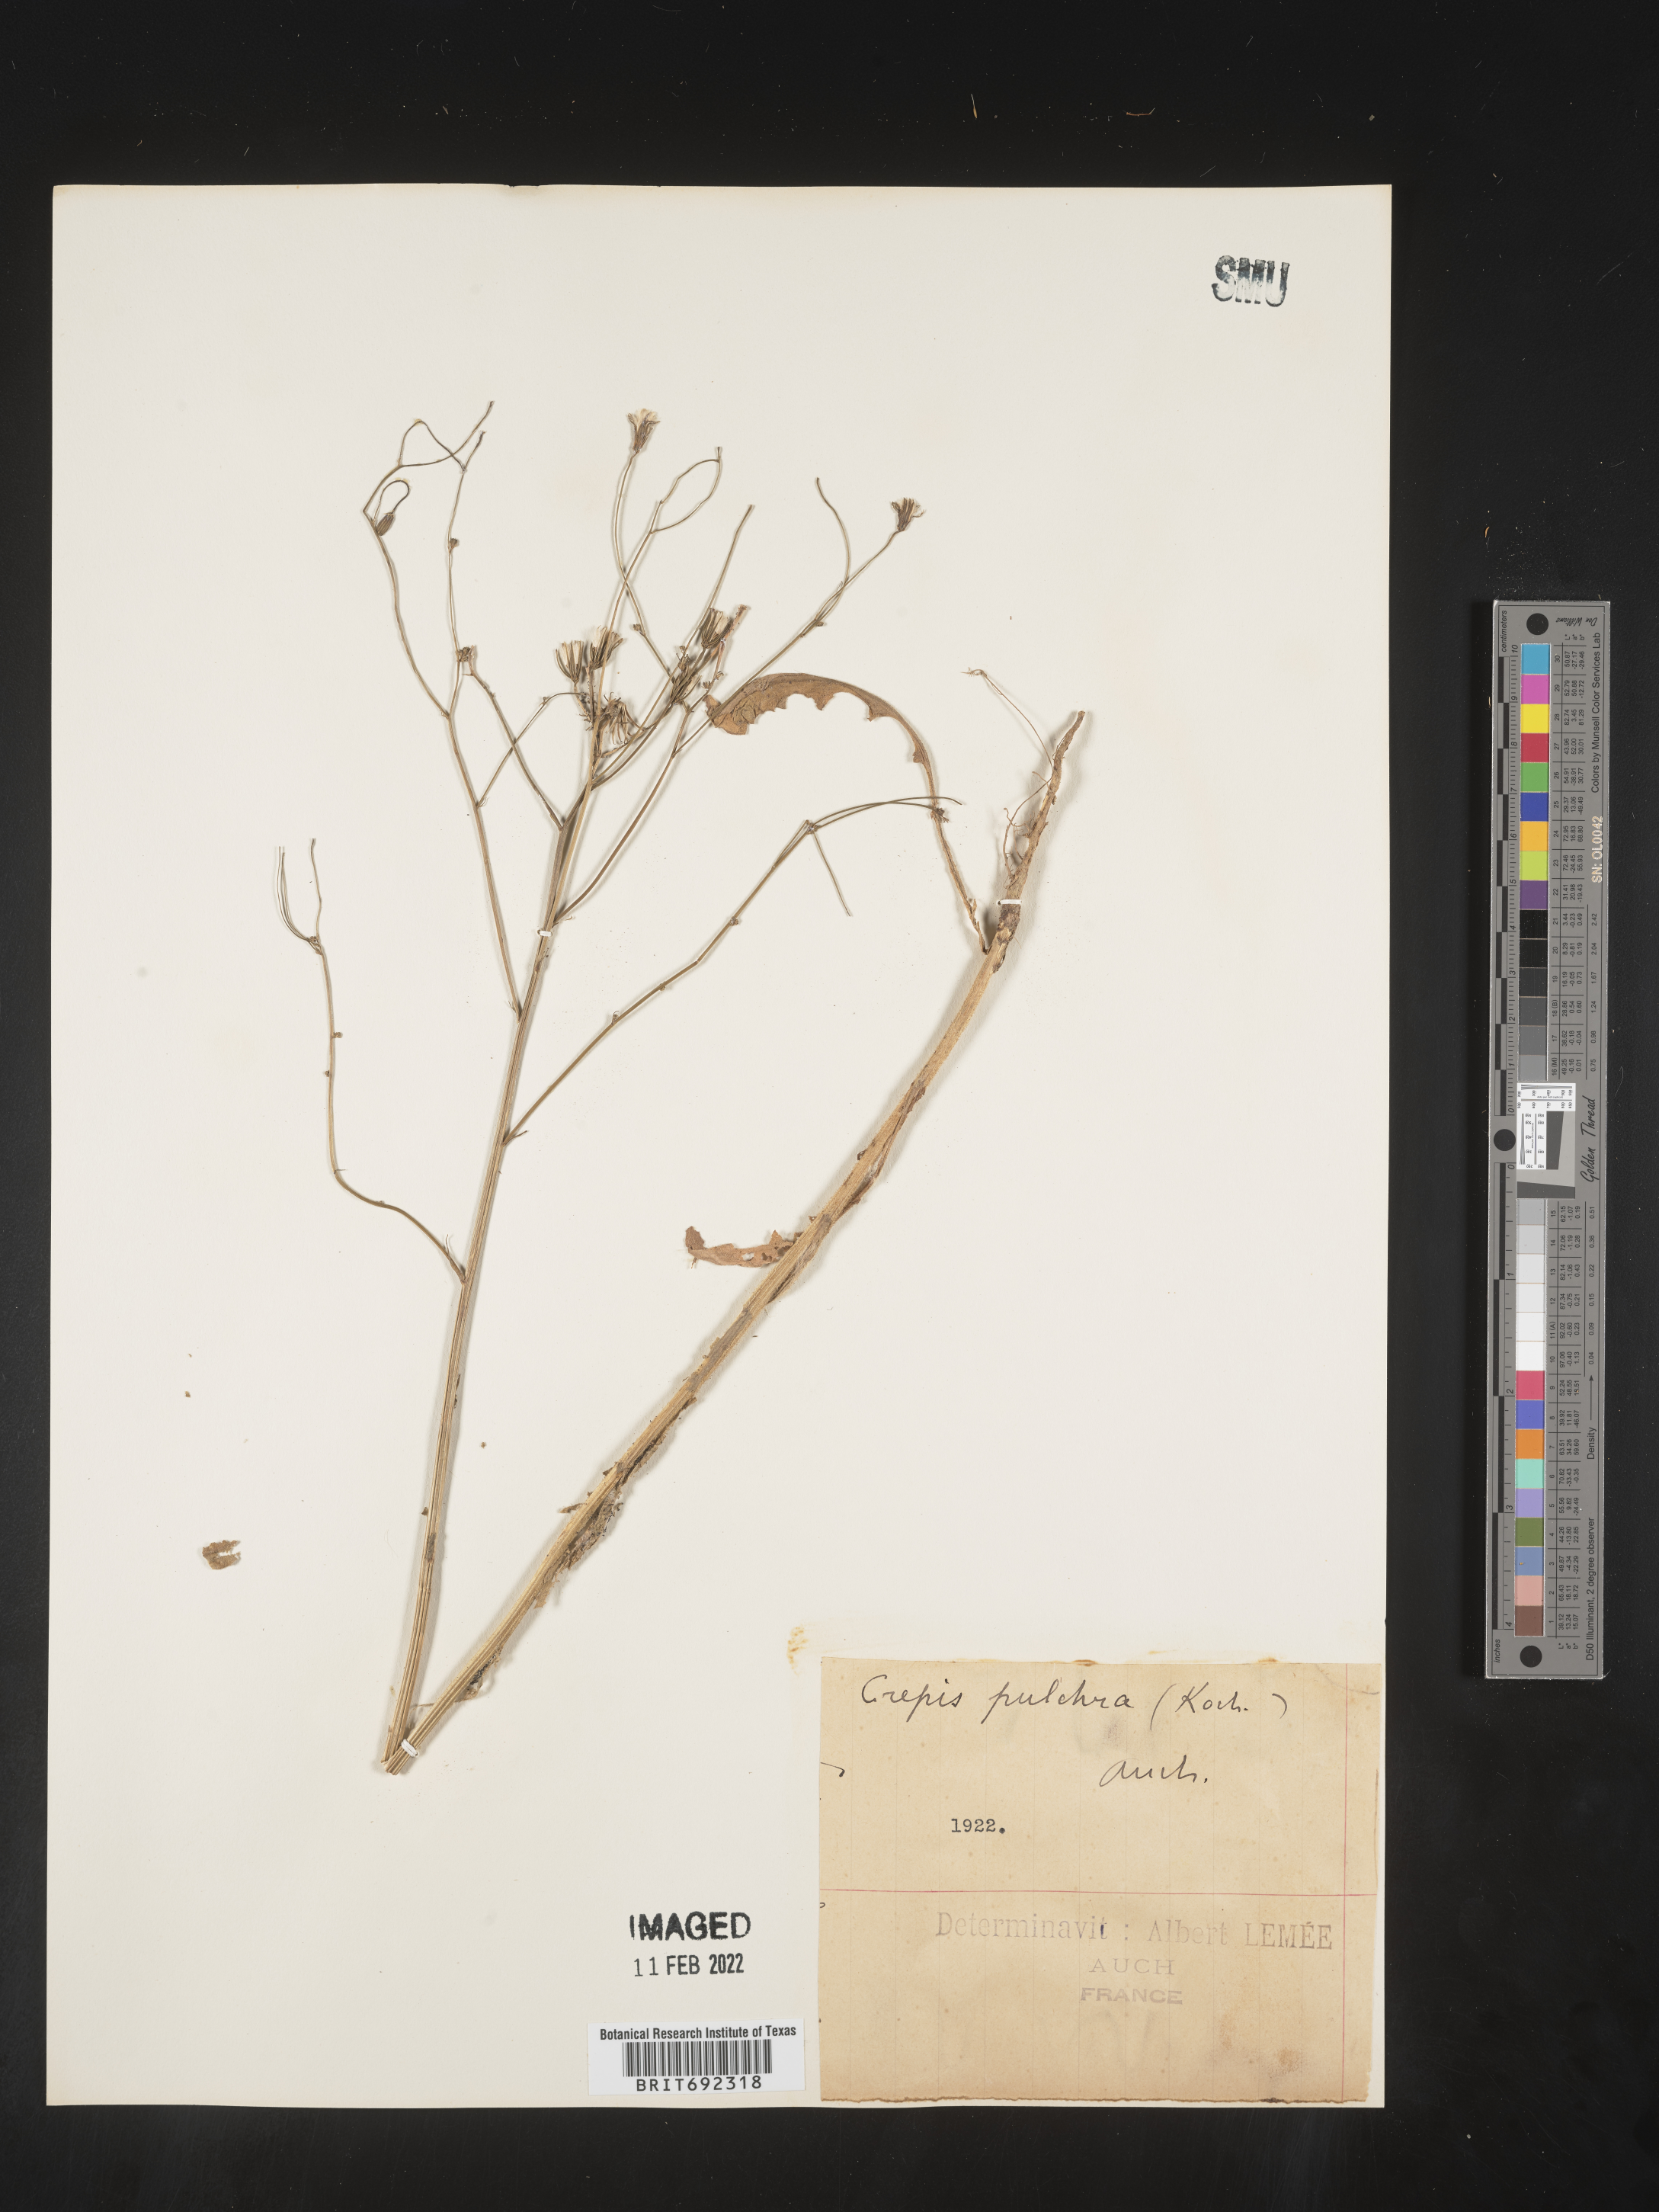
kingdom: Plantae
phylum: Tracheophyta
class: Magnoliopsida
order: Asterales
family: Asteraceae
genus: Crepis
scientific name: Crepis
